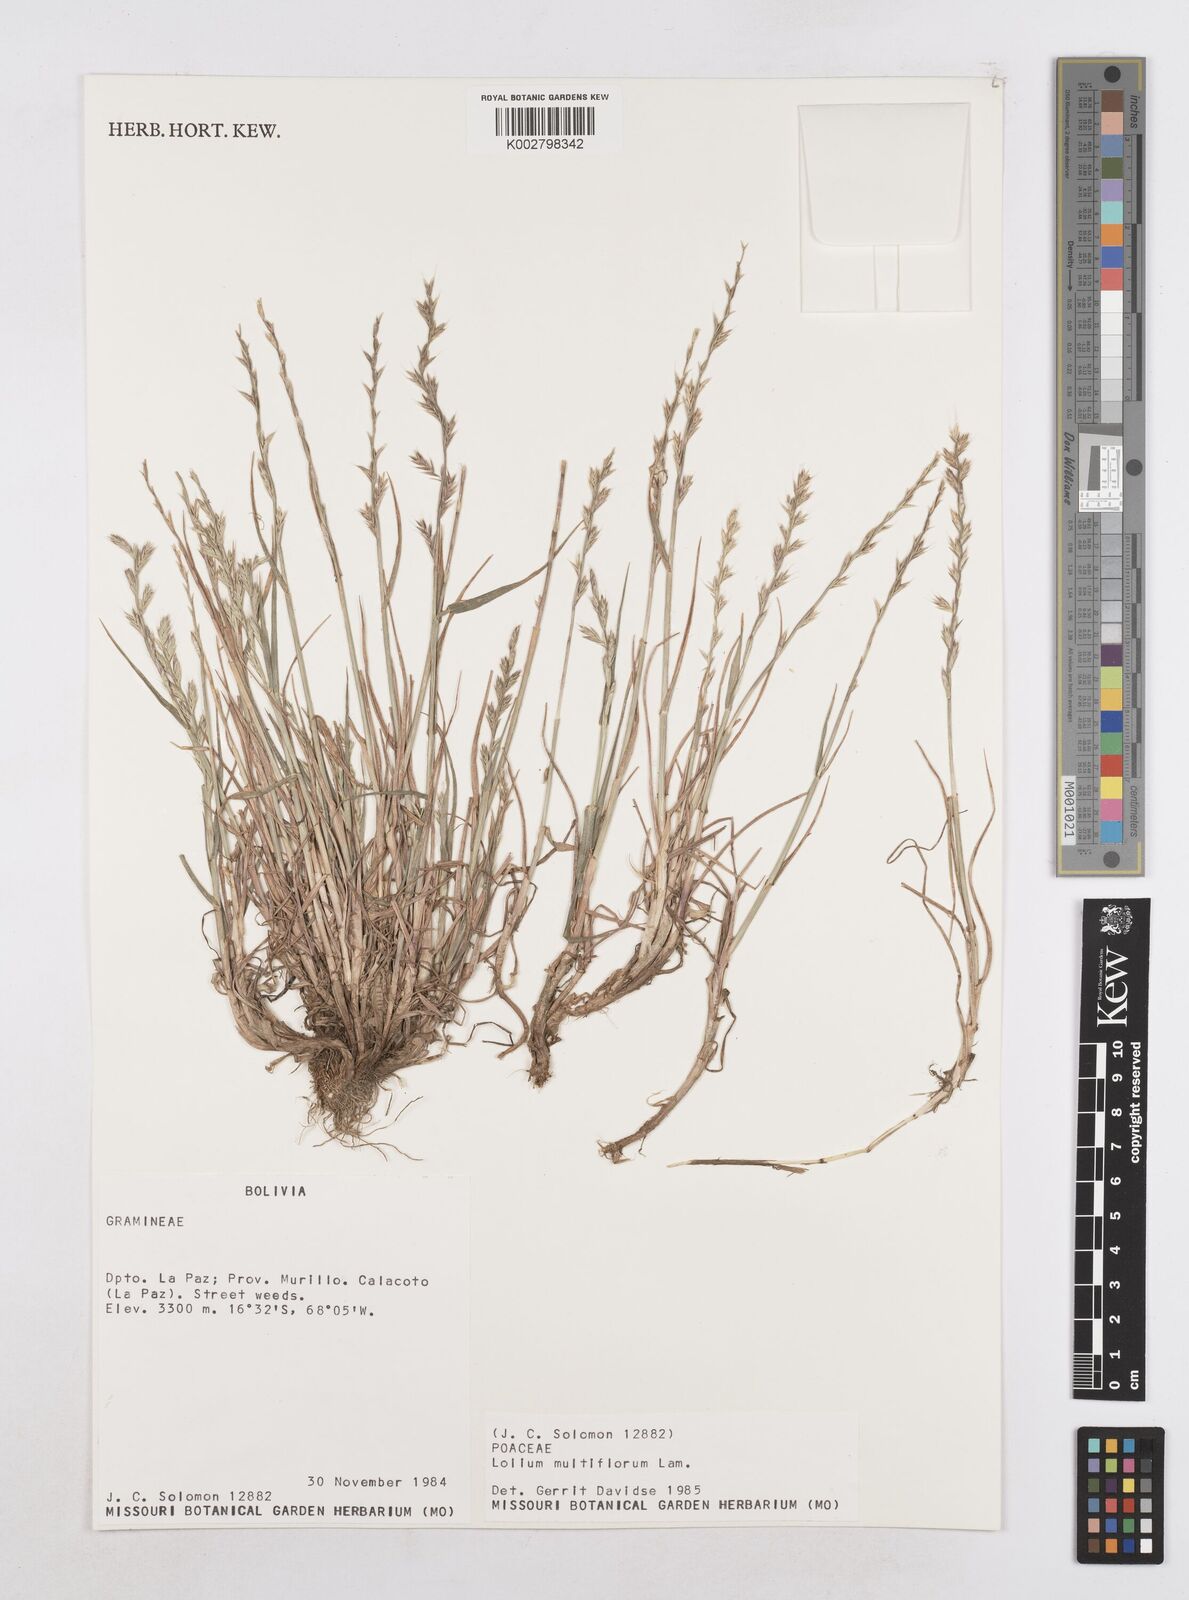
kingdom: Plantae
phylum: Tracheophyta
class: Liliopsida
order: Poales
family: Poaceae
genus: Lolium
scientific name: Lolium multiflorum
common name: Annual ryegrass
